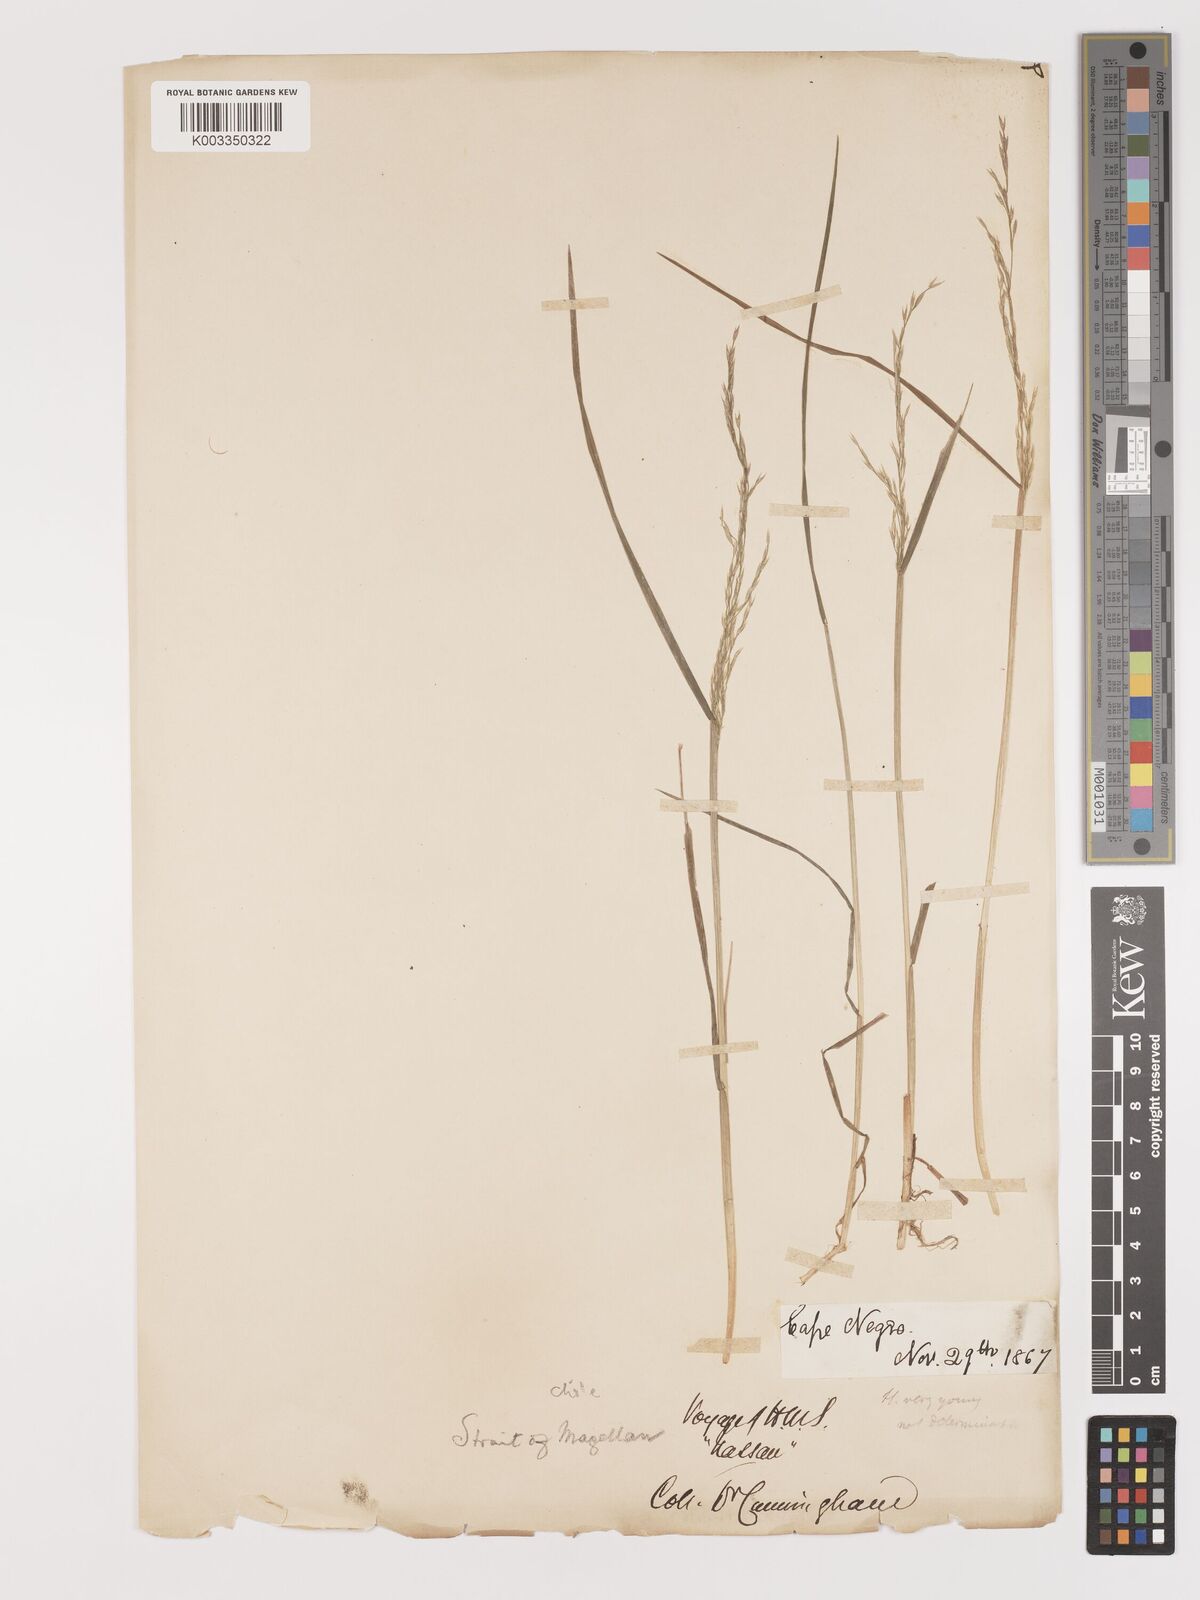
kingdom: Plantae
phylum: Tracheophyta
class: Liliopsida
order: Poales
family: Poaceae
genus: Agrostis
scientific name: Agrostis
